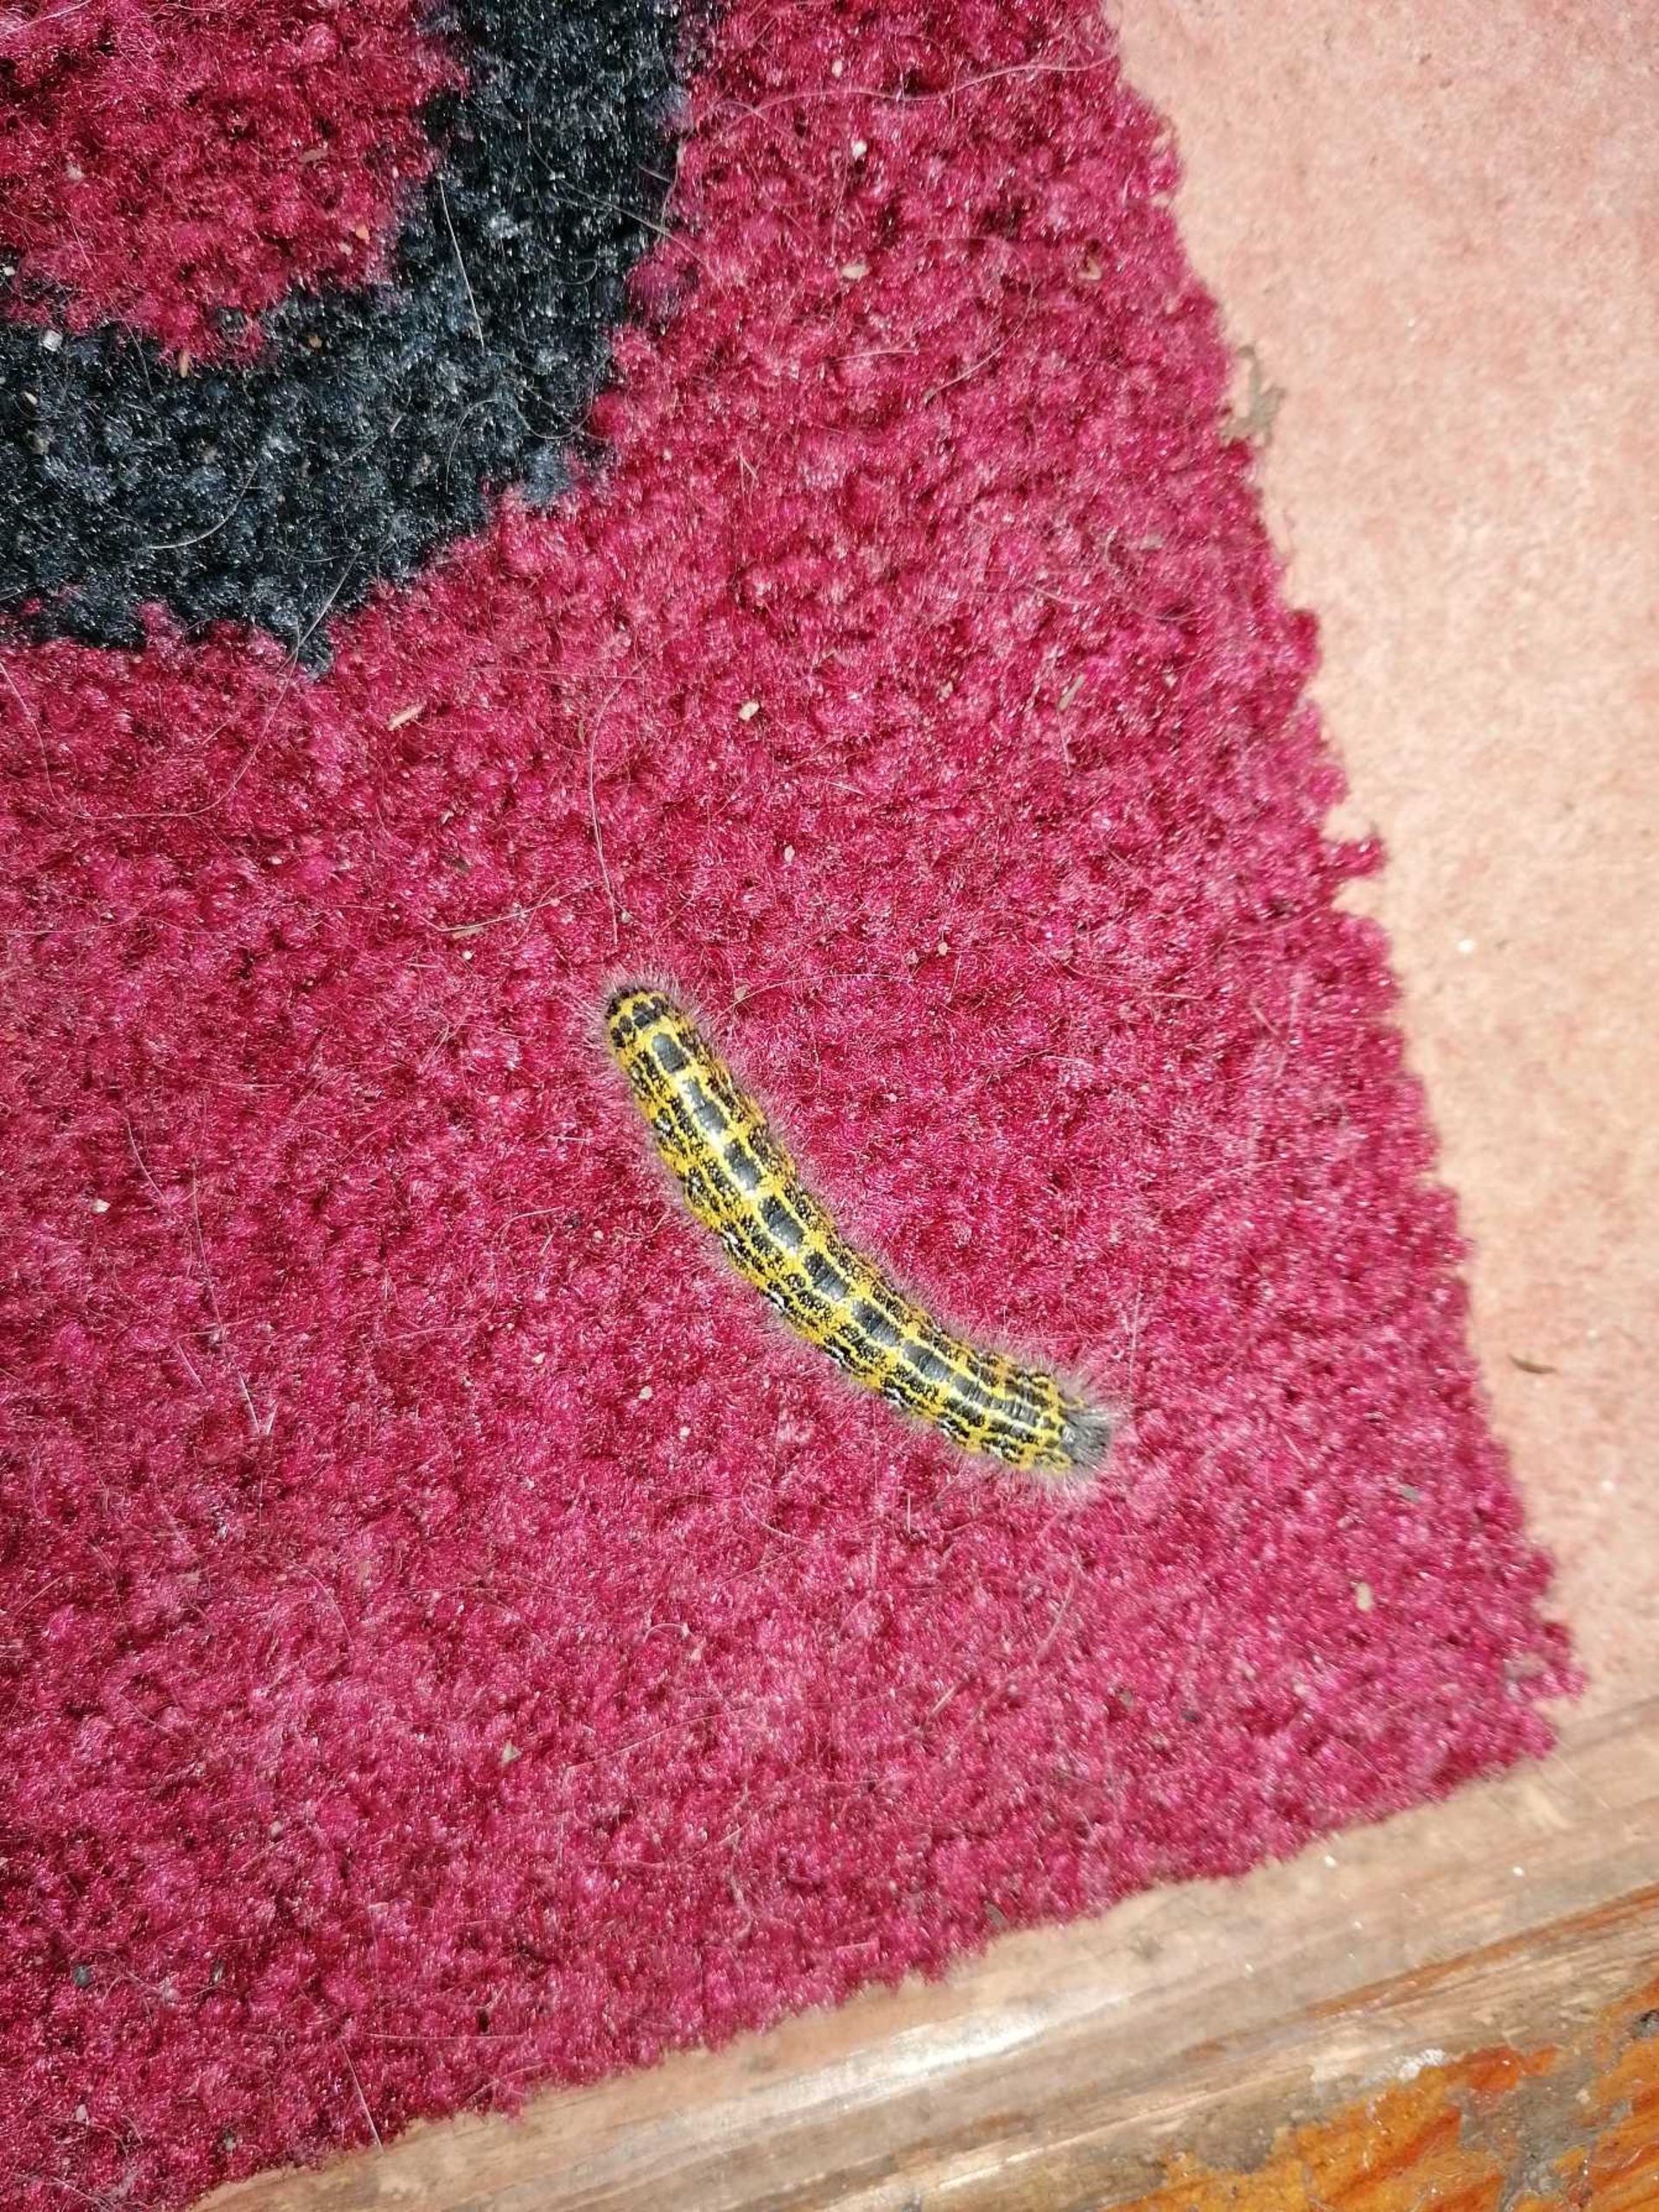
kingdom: Animalia
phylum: Arthropoda
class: Insecta
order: Lepidoptera
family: Notodontidae
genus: Phalera
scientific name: Phalera bucephala
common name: Måneplet
